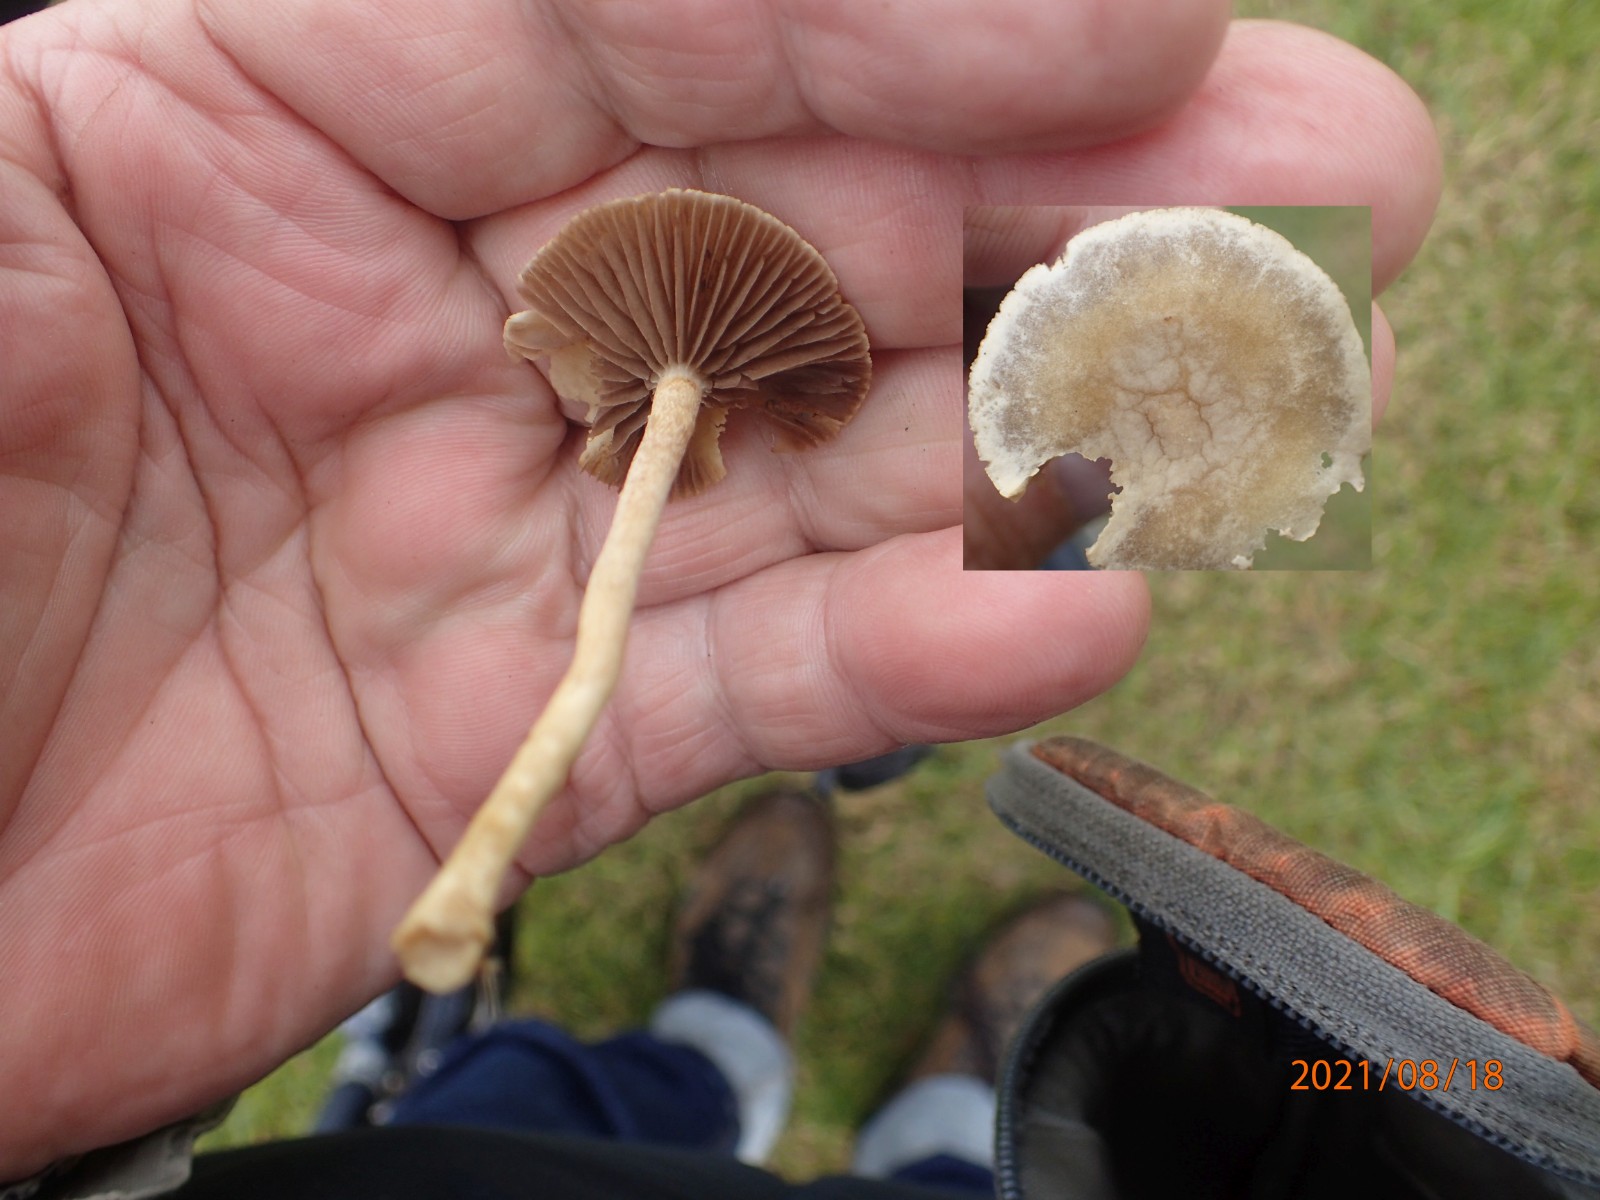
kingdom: Fungi
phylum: Basidiomycota
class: Agaricomycetes
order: Agaricales
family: Strophariaceae
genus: Agrocybe
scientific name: Agrocybe
